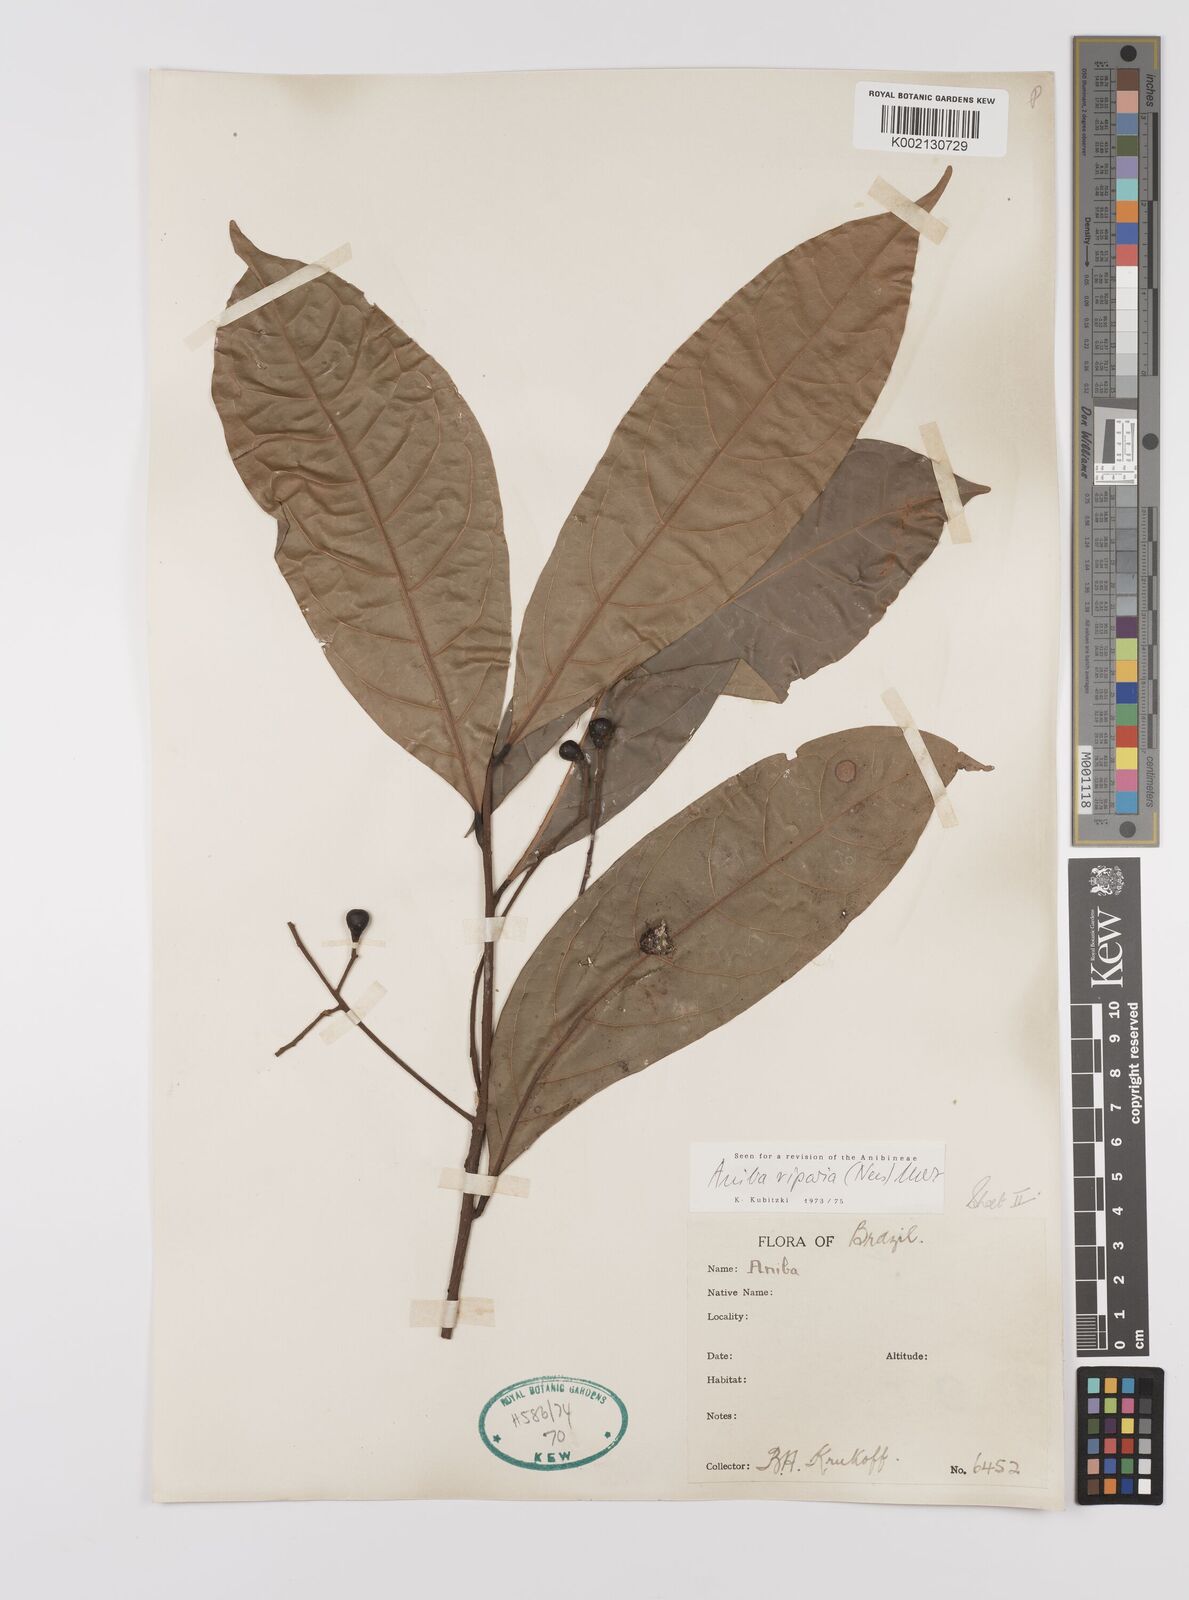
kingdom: Plantae
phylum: Tracheophyta
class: Magnoliopsida
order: Laurales
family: Lauraceae
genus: Aniba
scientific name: Aniba riparia
